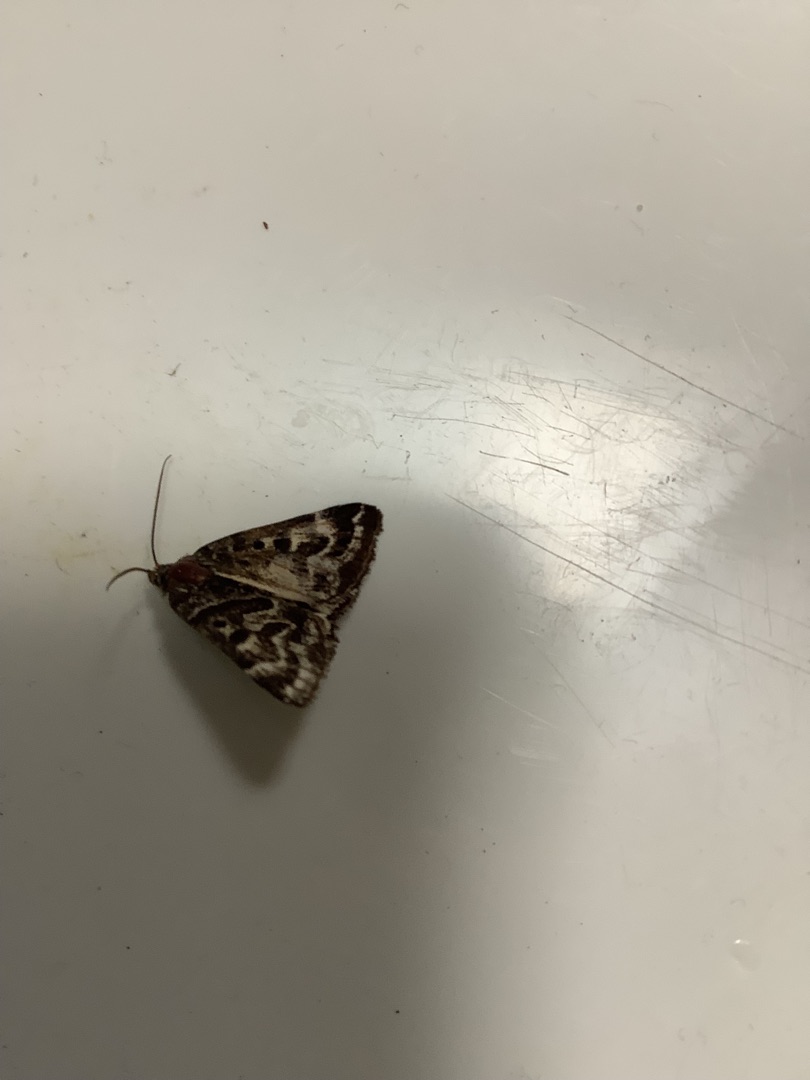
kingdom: Animalia
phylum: Arthropoda
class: Insecta
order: Lepidoptera
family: Erebidae
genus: Callistege
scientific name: Callistege mi
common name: Marmoreret kløverugle
